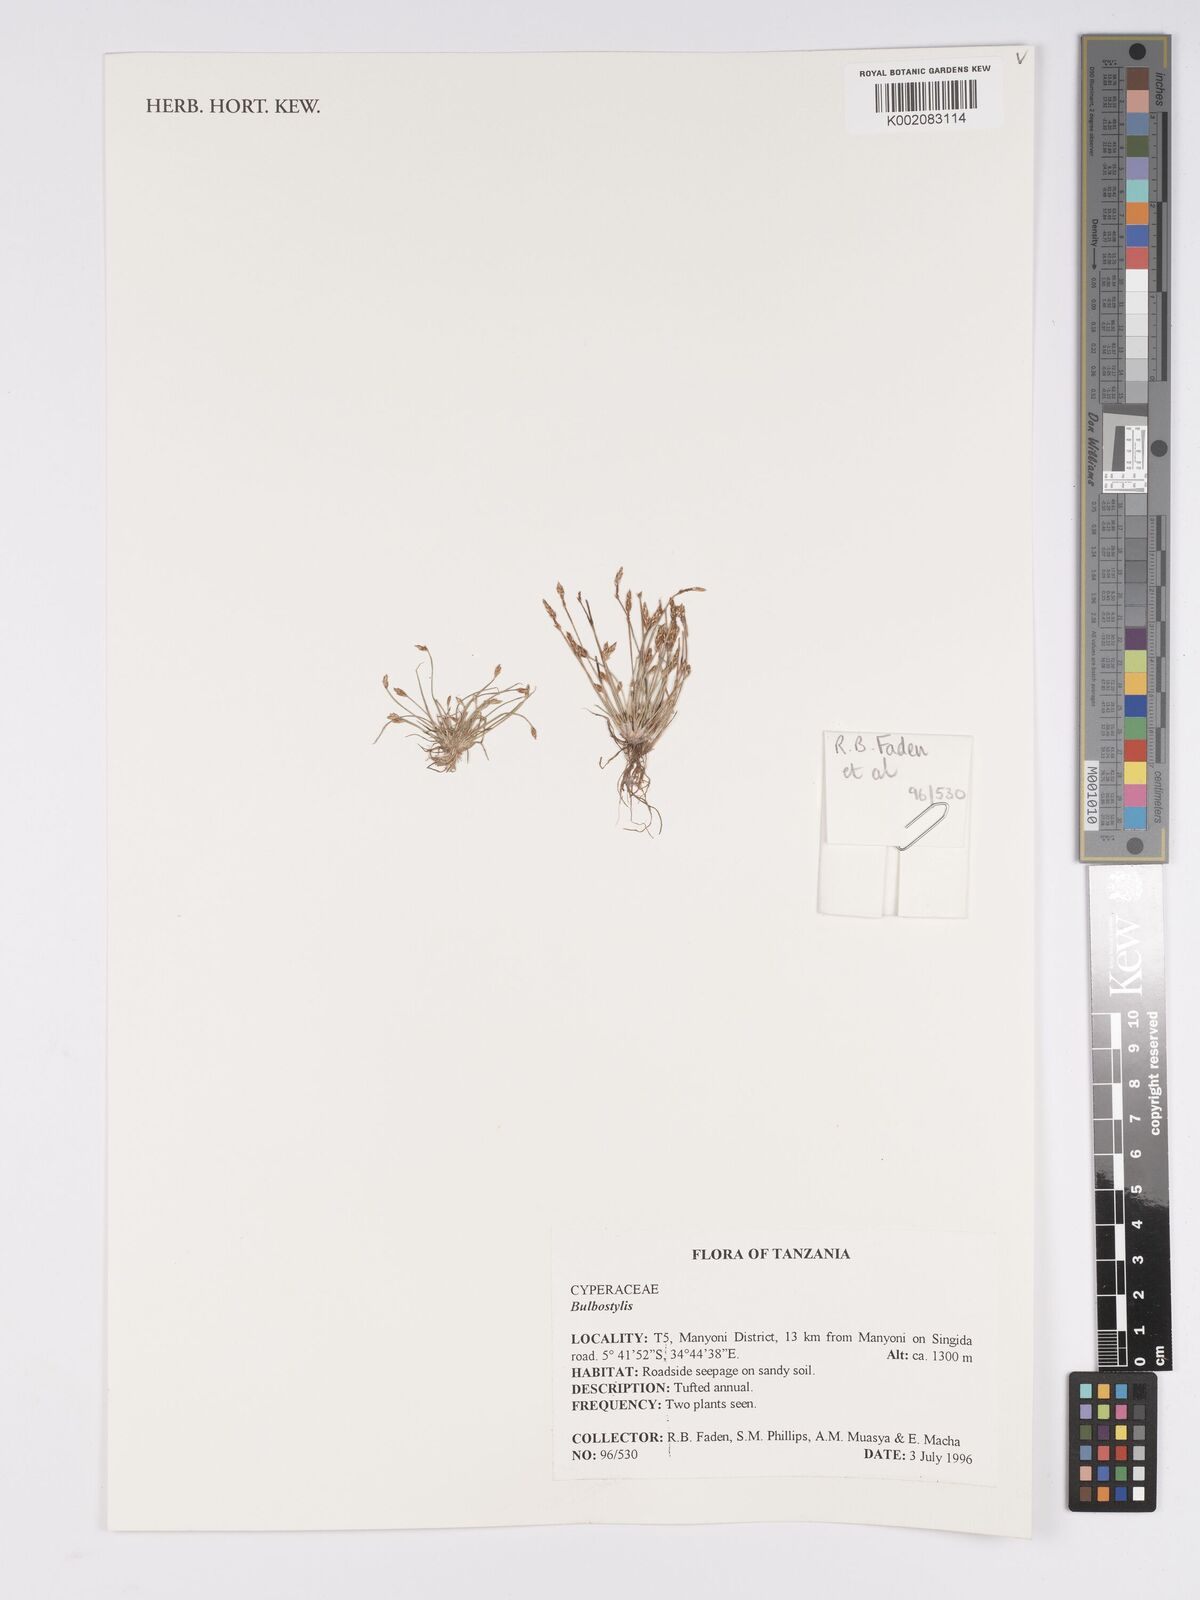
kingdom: Plantae
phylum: Tracheophyta
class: Magnoliopsida
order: Asterales
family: Asteraceae
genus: Bulbostylis
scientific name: Bulbostylis
